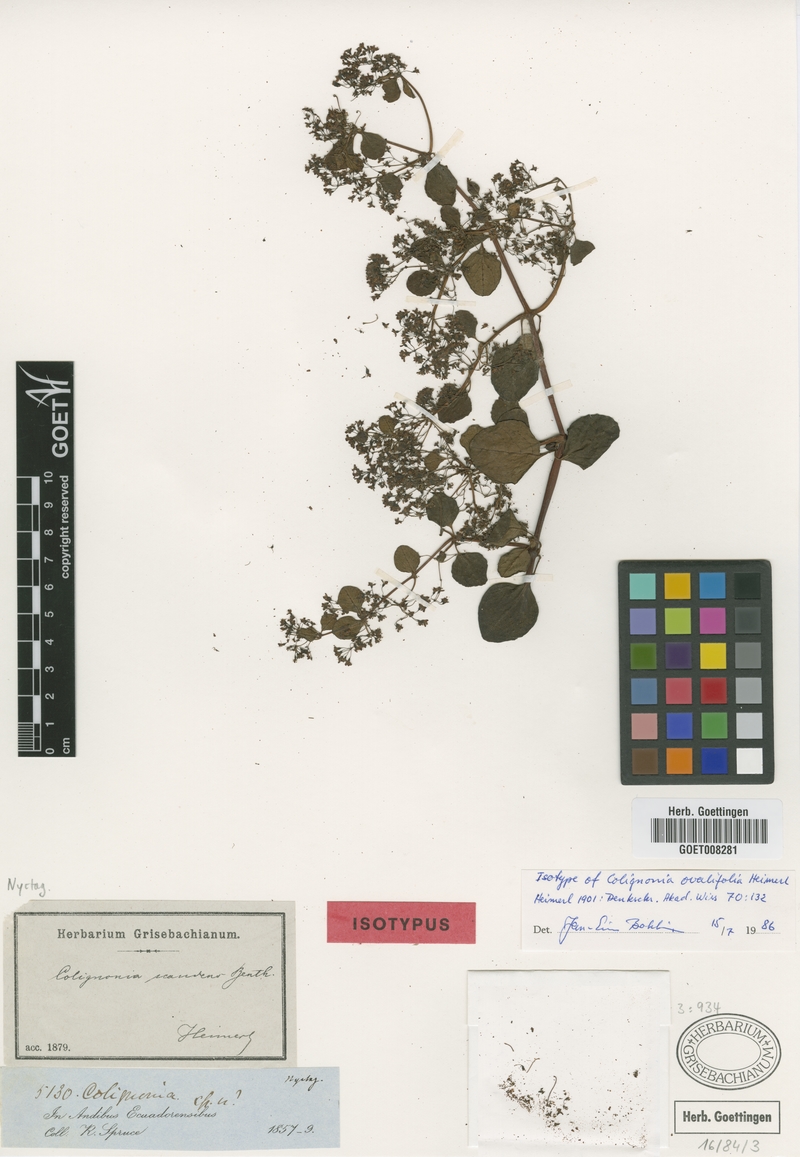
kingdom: Plantae
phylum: Tracheophyta
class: Magnoliopsida
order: Caryophyllales
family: Nyctaginaceae
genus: Colignonia
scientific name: Colignonia ovalifolia
